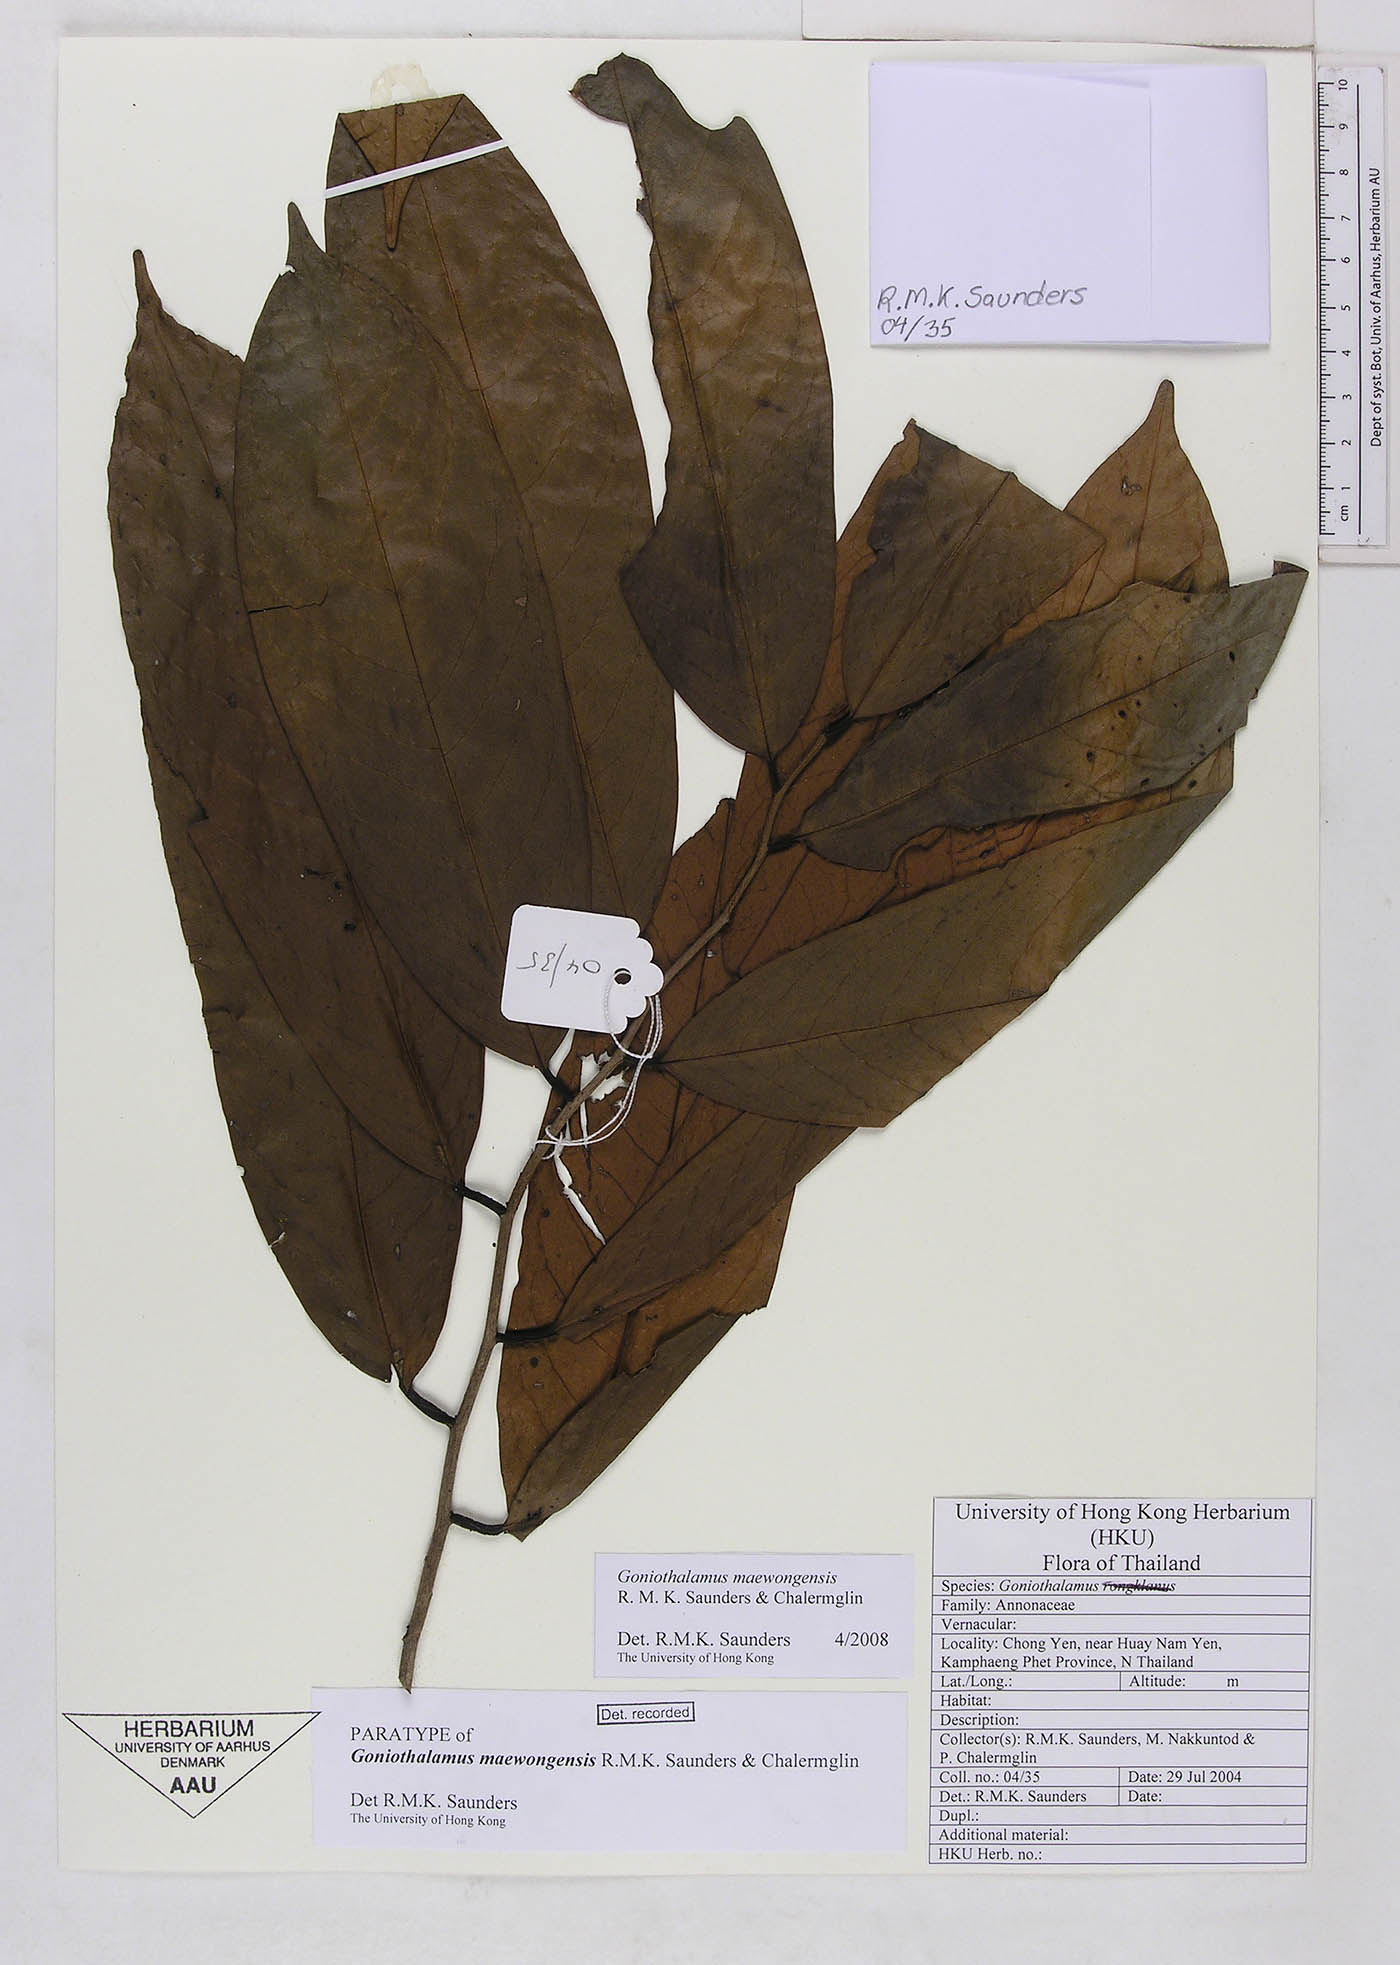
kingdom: Plantae
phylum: Tracheophyta
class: Magnoliopsida
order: Magnoliales
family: Annonaceae
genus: Goniothalamus
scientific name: Goniothalamus maewongensis
